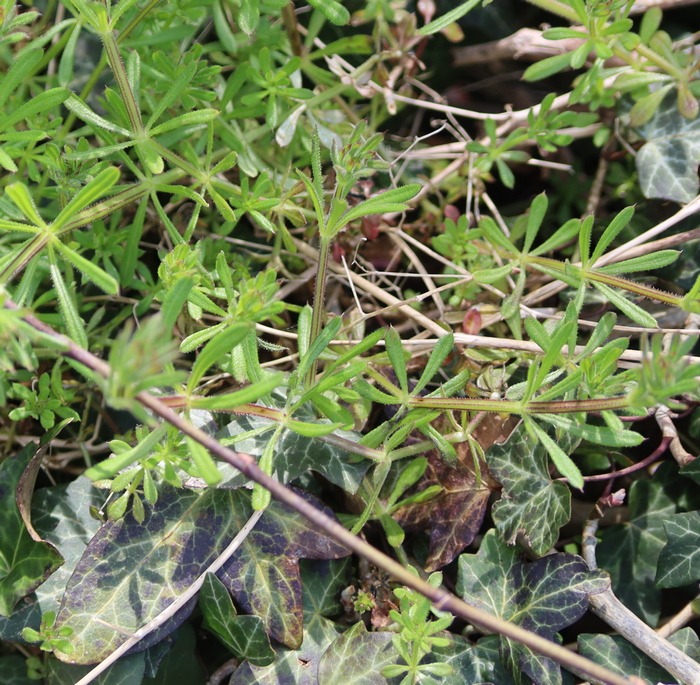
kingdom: Plantae
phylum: Tracheophyta
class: Magnoliopsida
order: Gentianales
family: Rubiaceae
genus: Galium
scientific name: Galium aparine
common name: Burre-snerre
